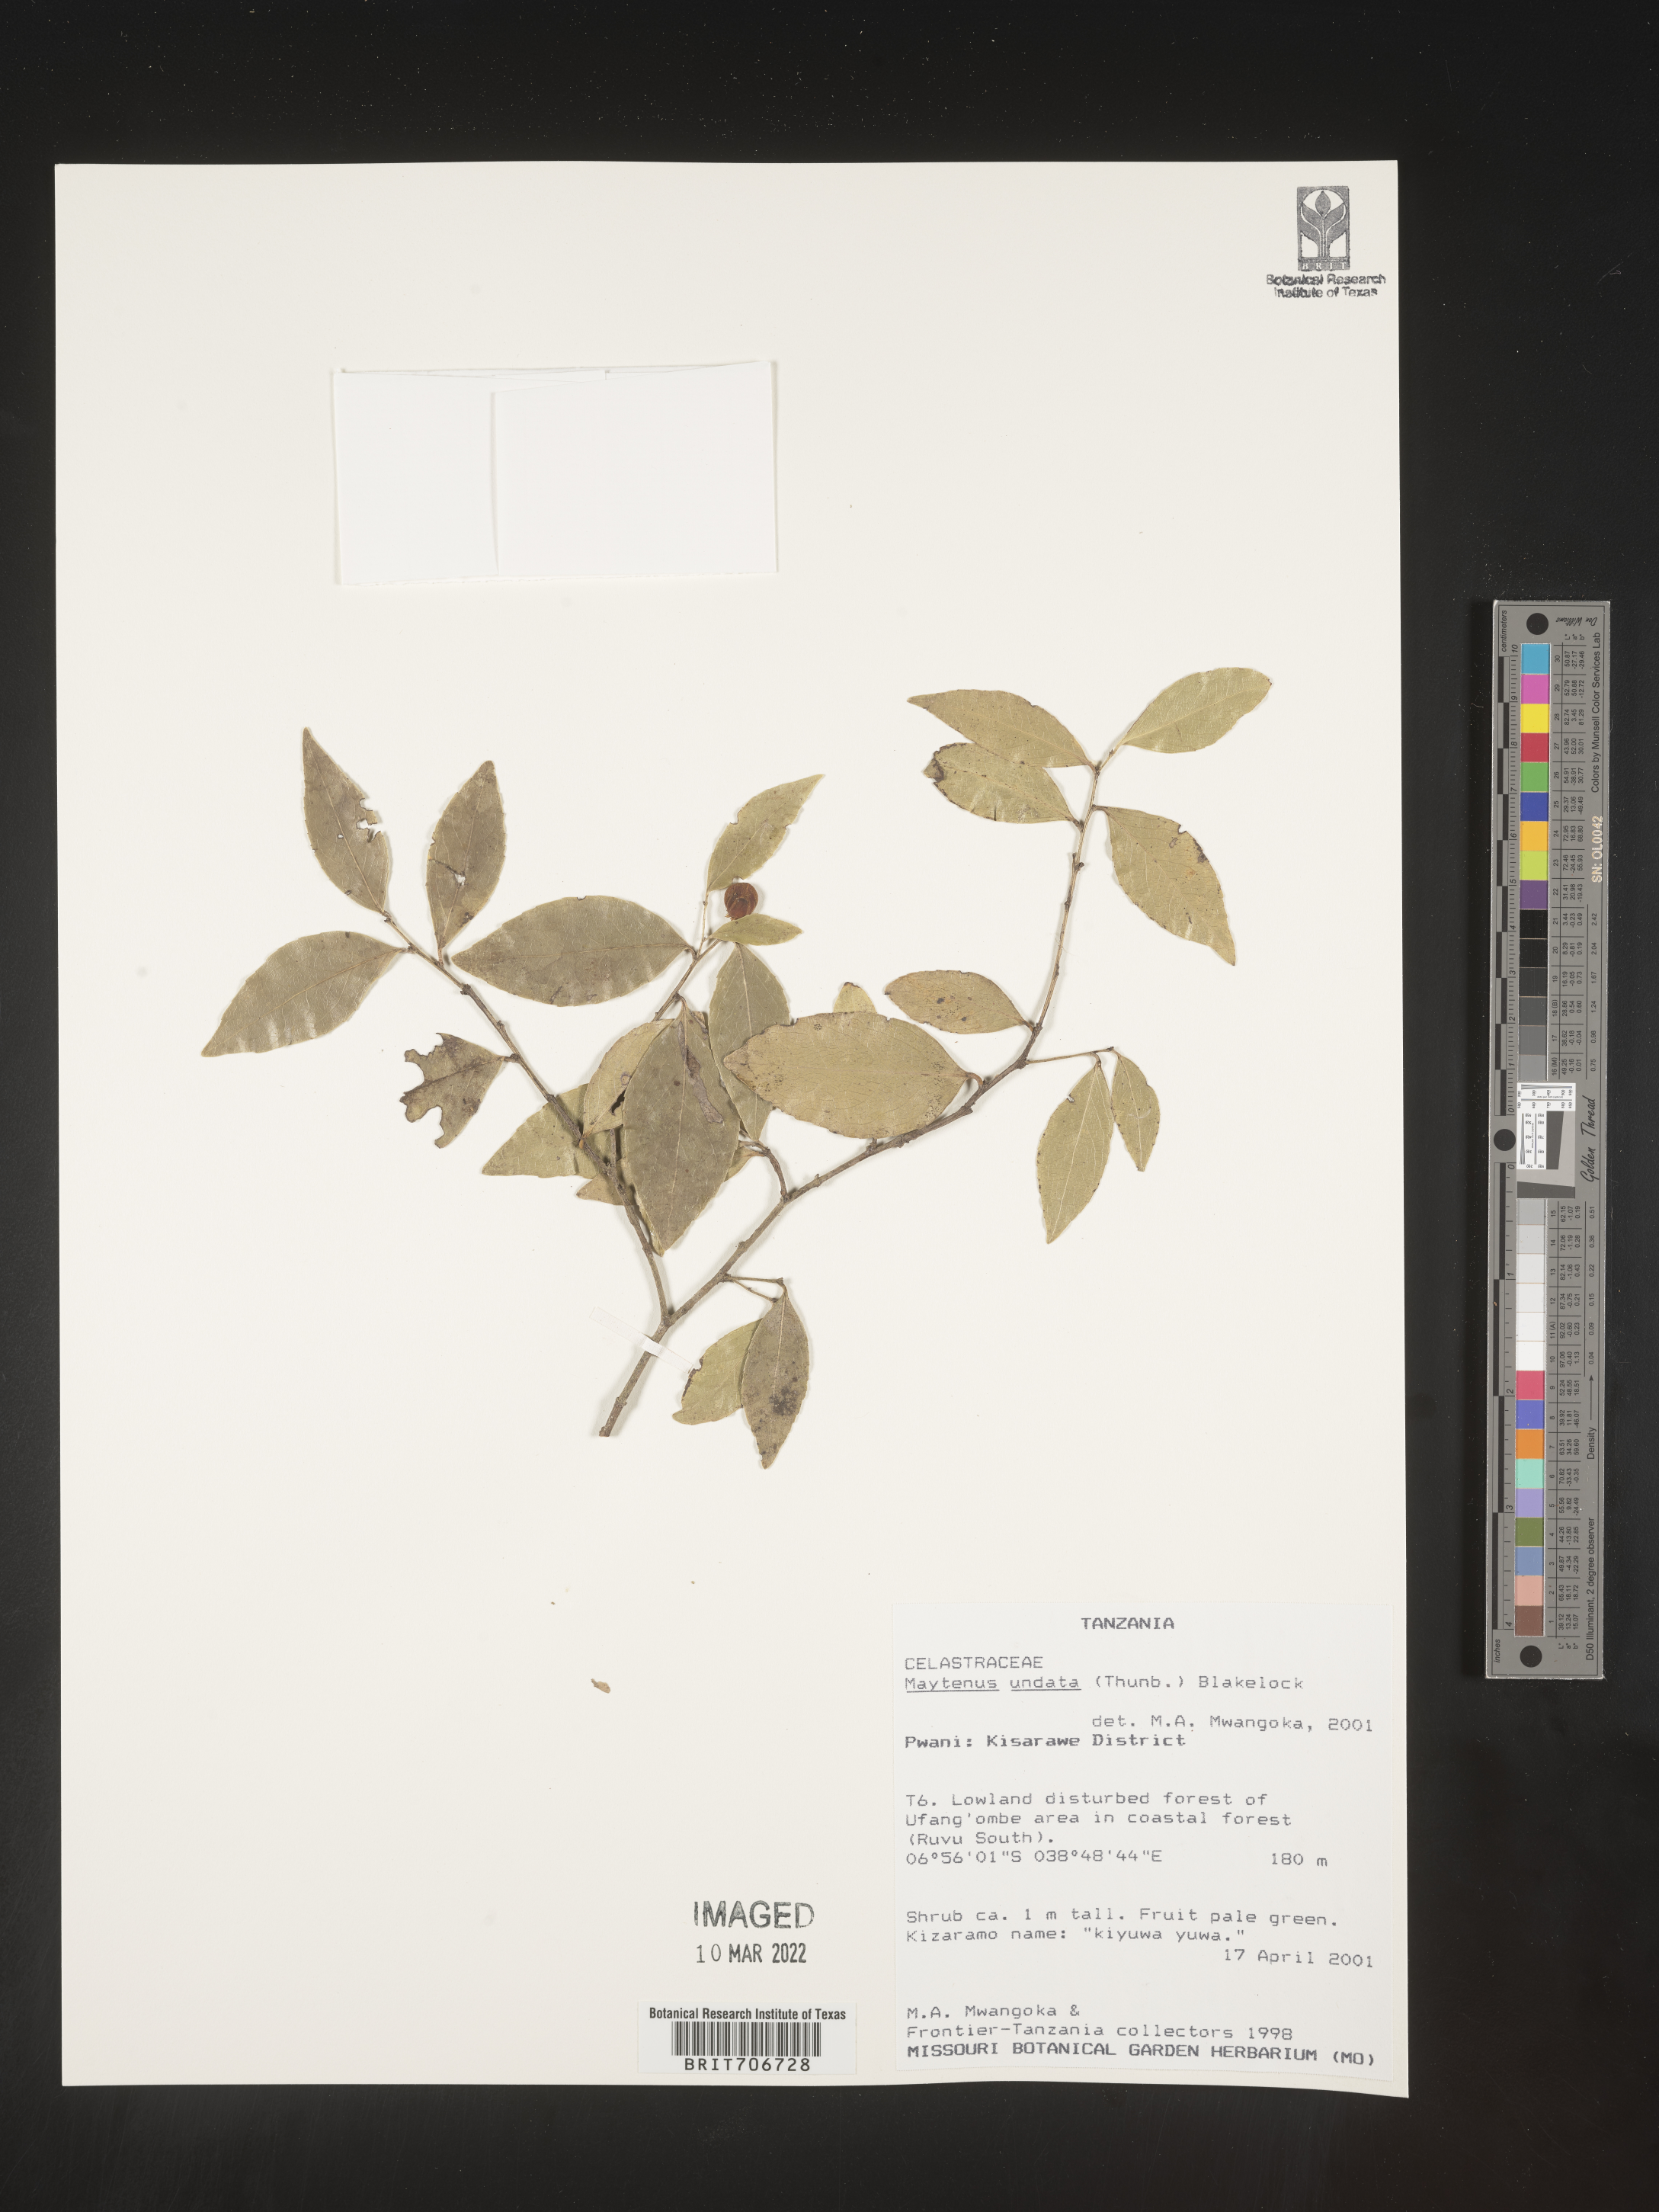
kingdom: Plantae
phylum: Tracheophyta
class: Magnoliopsida
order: Celastrales
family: Celastraceae
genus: Maytenus
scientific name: Maytenus
